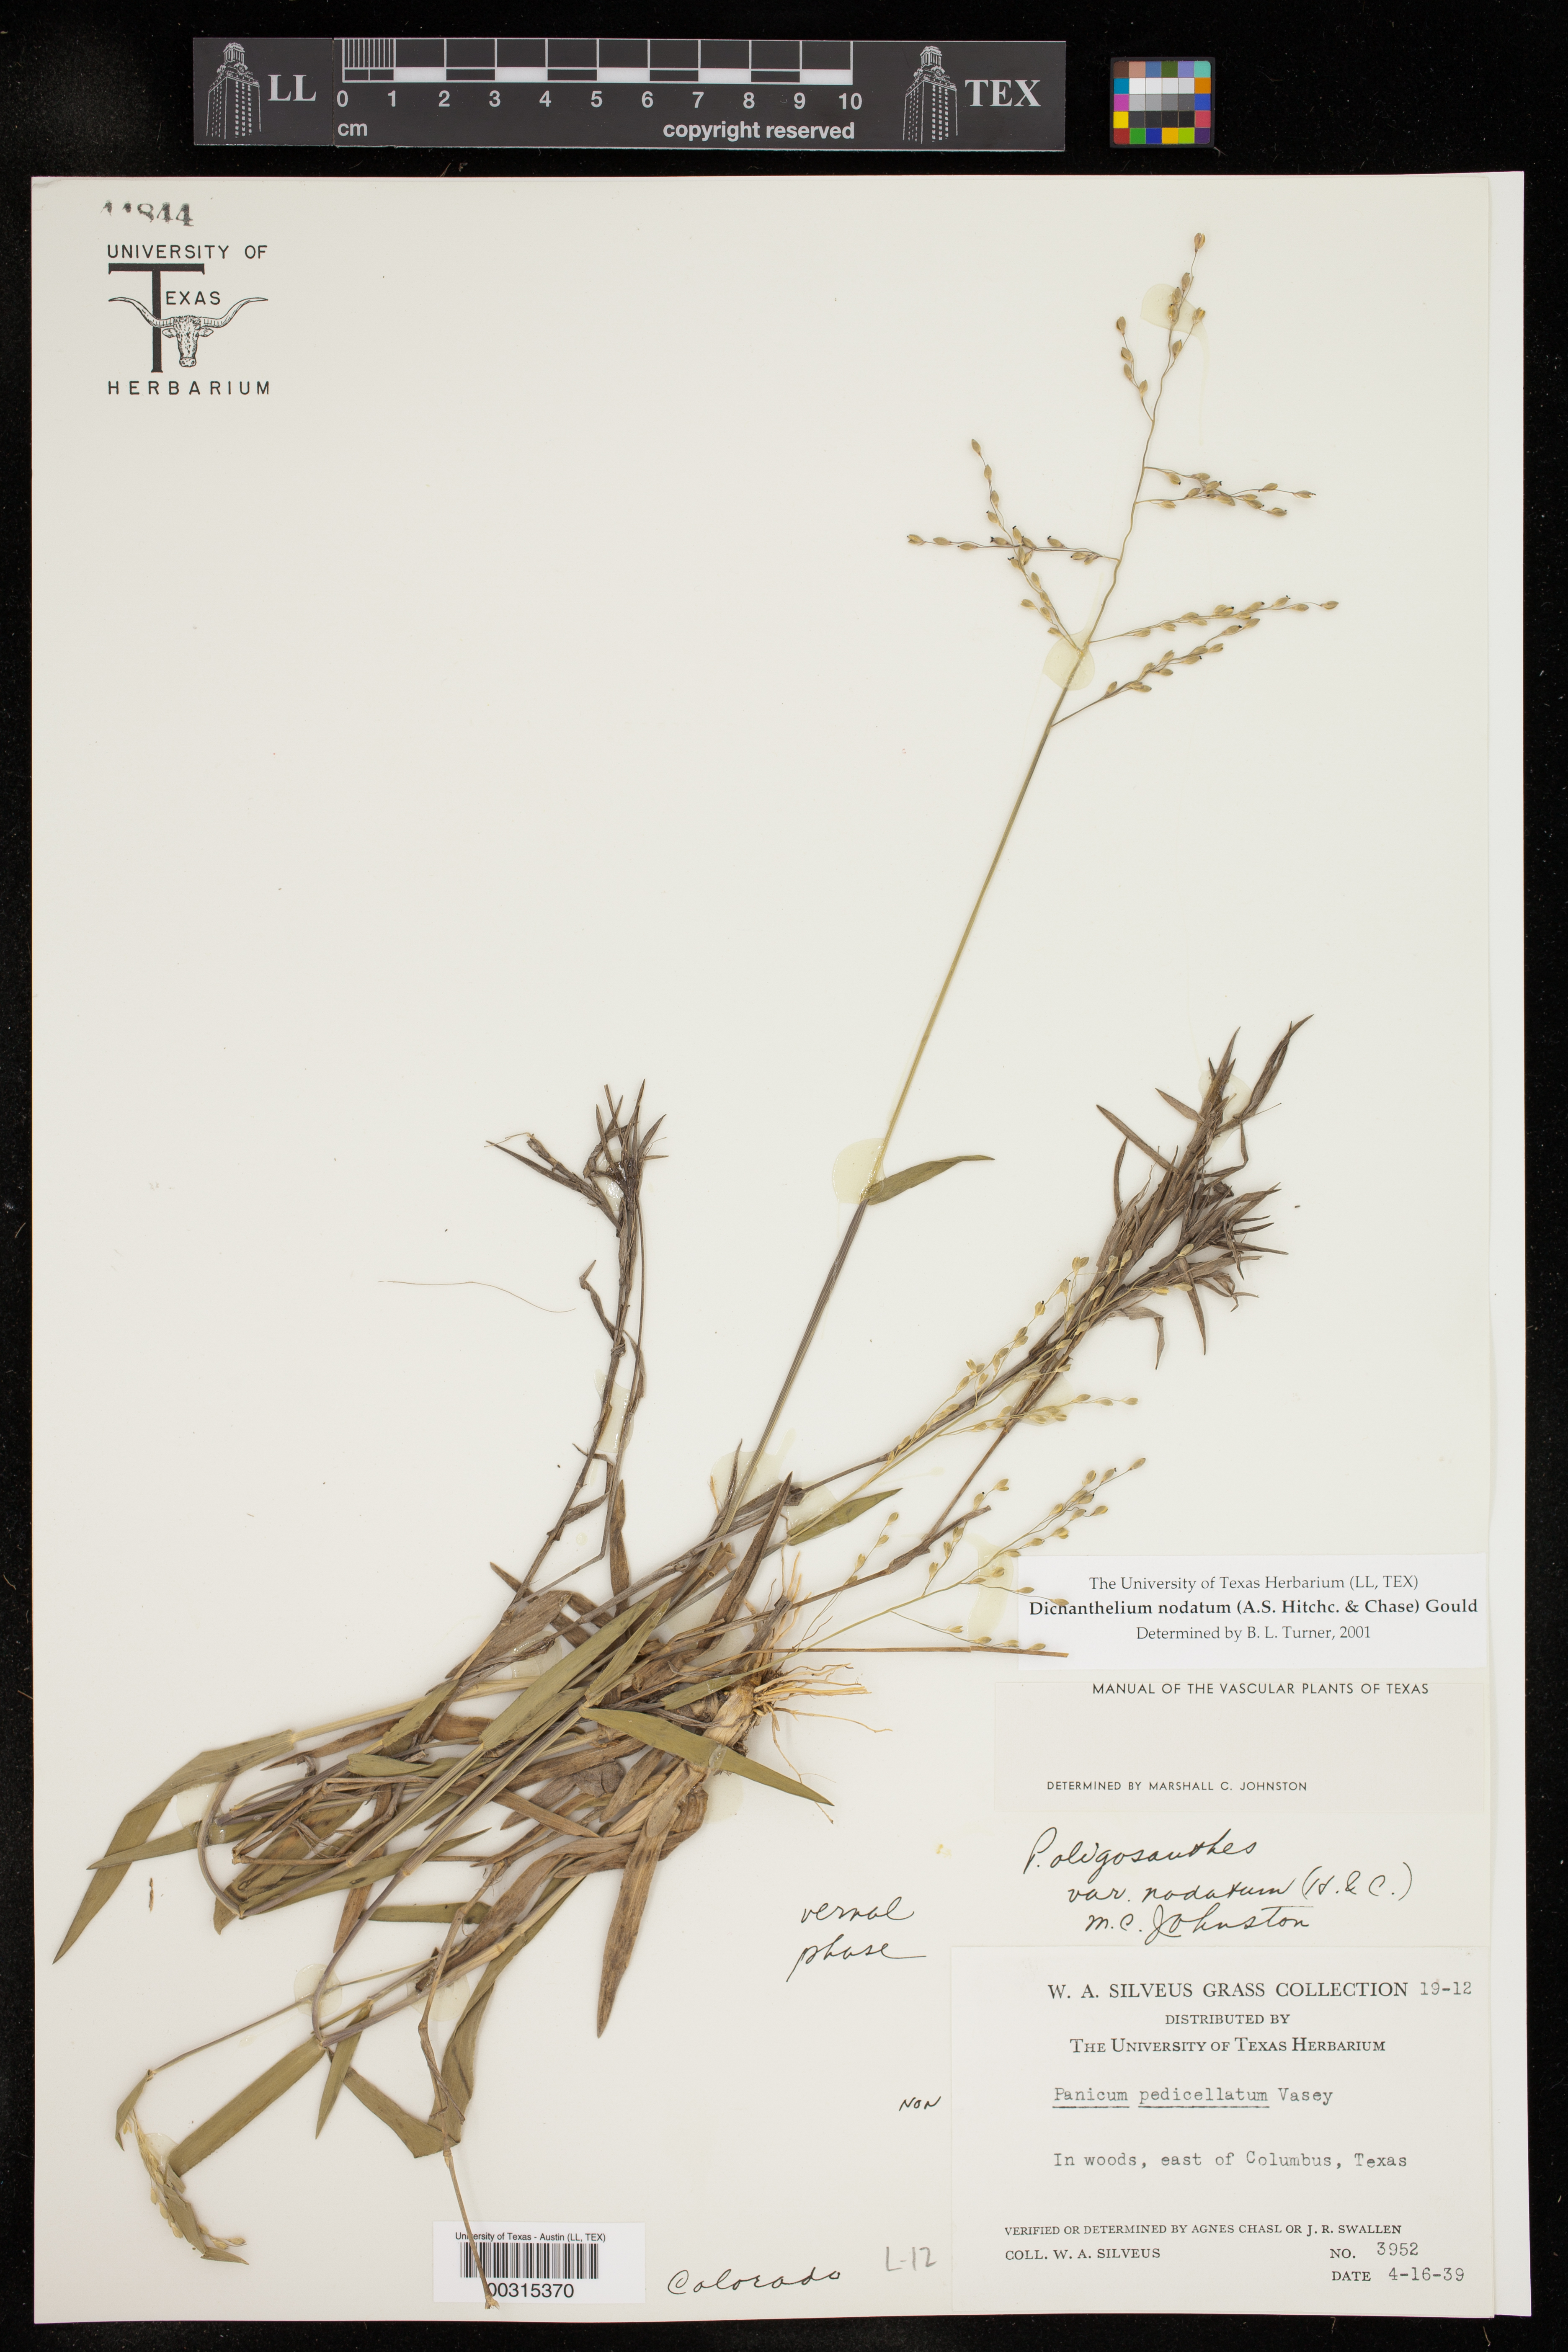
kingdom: Plantae
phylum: Tracheophyta
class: Liliopsida
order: Poales
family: Poaceae
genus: Dichanthelium
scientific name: Dichanthelium nodatum
